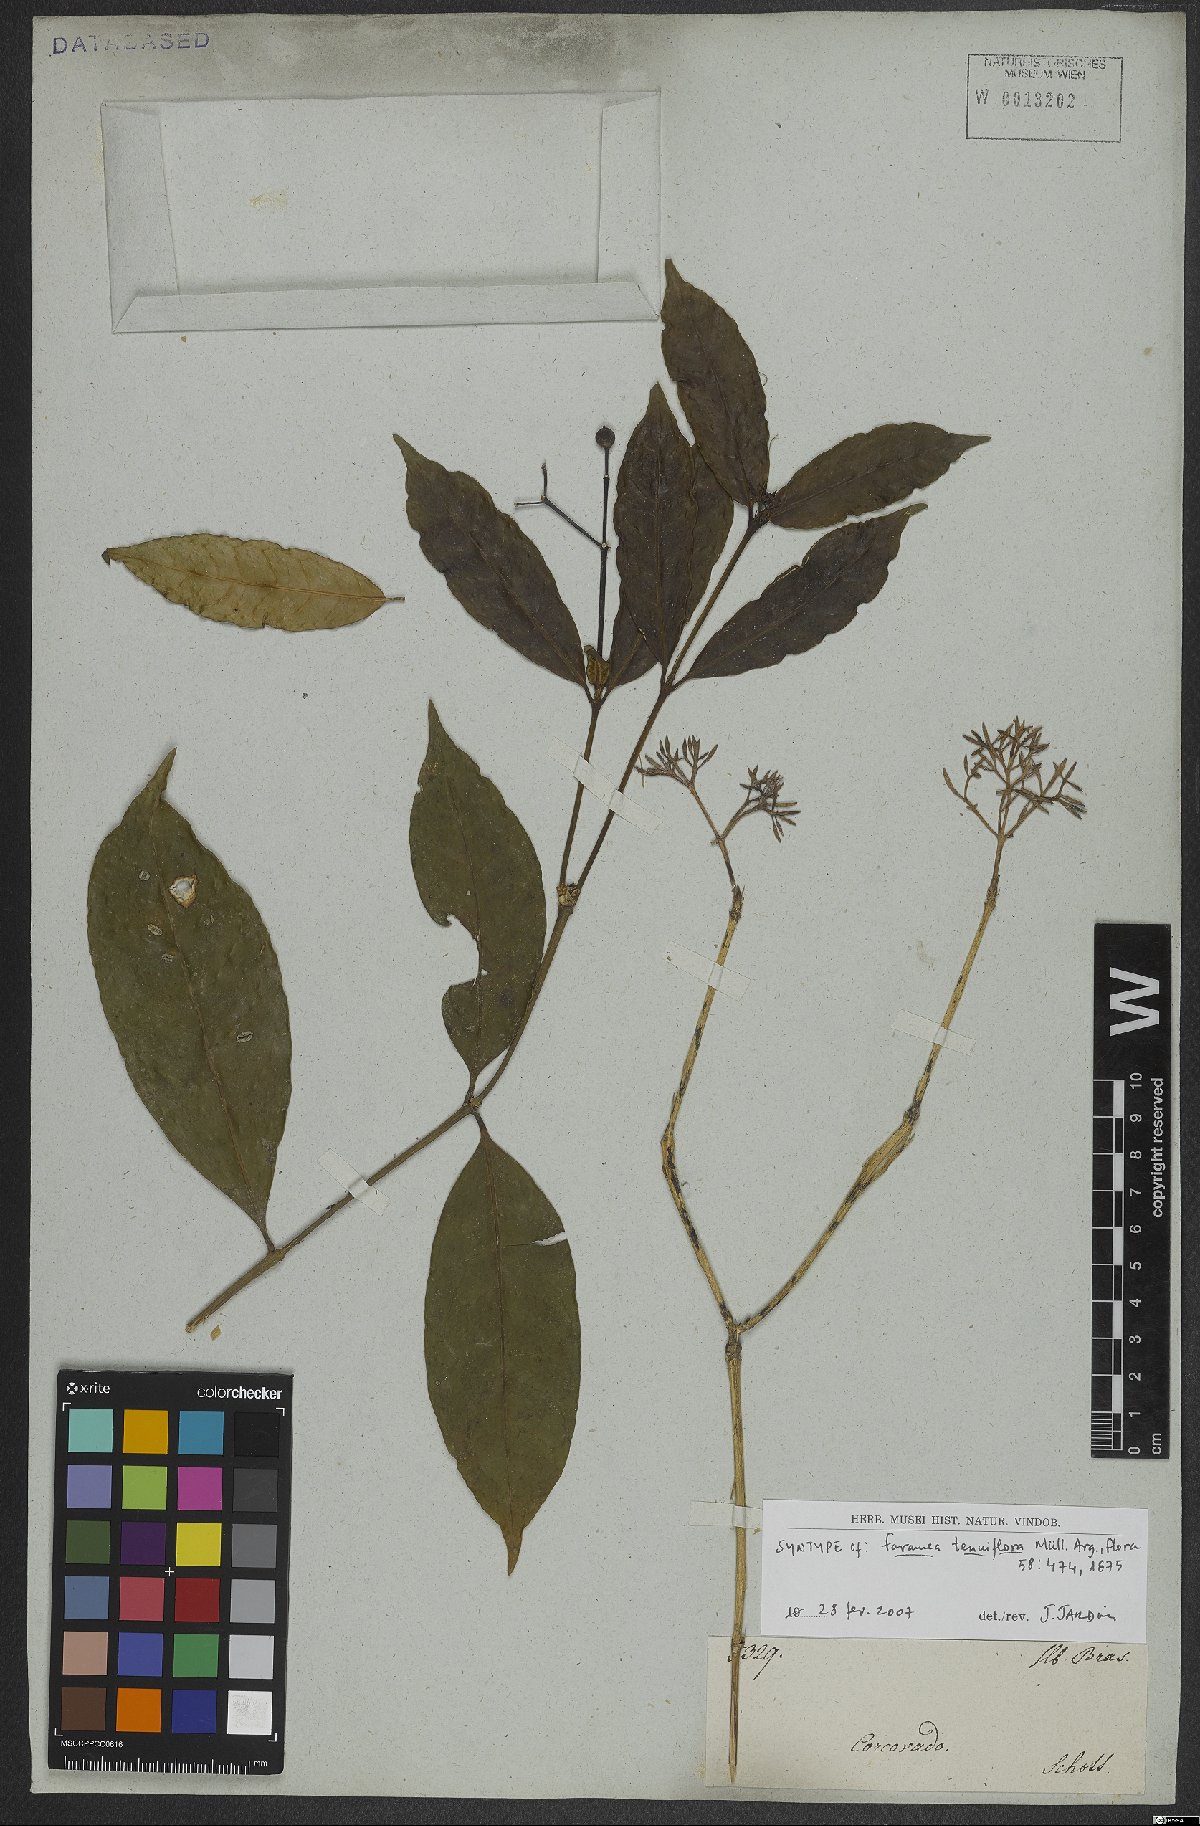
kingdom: Plantae
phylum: Tracheophyta
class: Magnoliopsida
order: Gentianales
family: Rubiaceae
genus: Faramea
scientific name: Faramea tenuiflora
